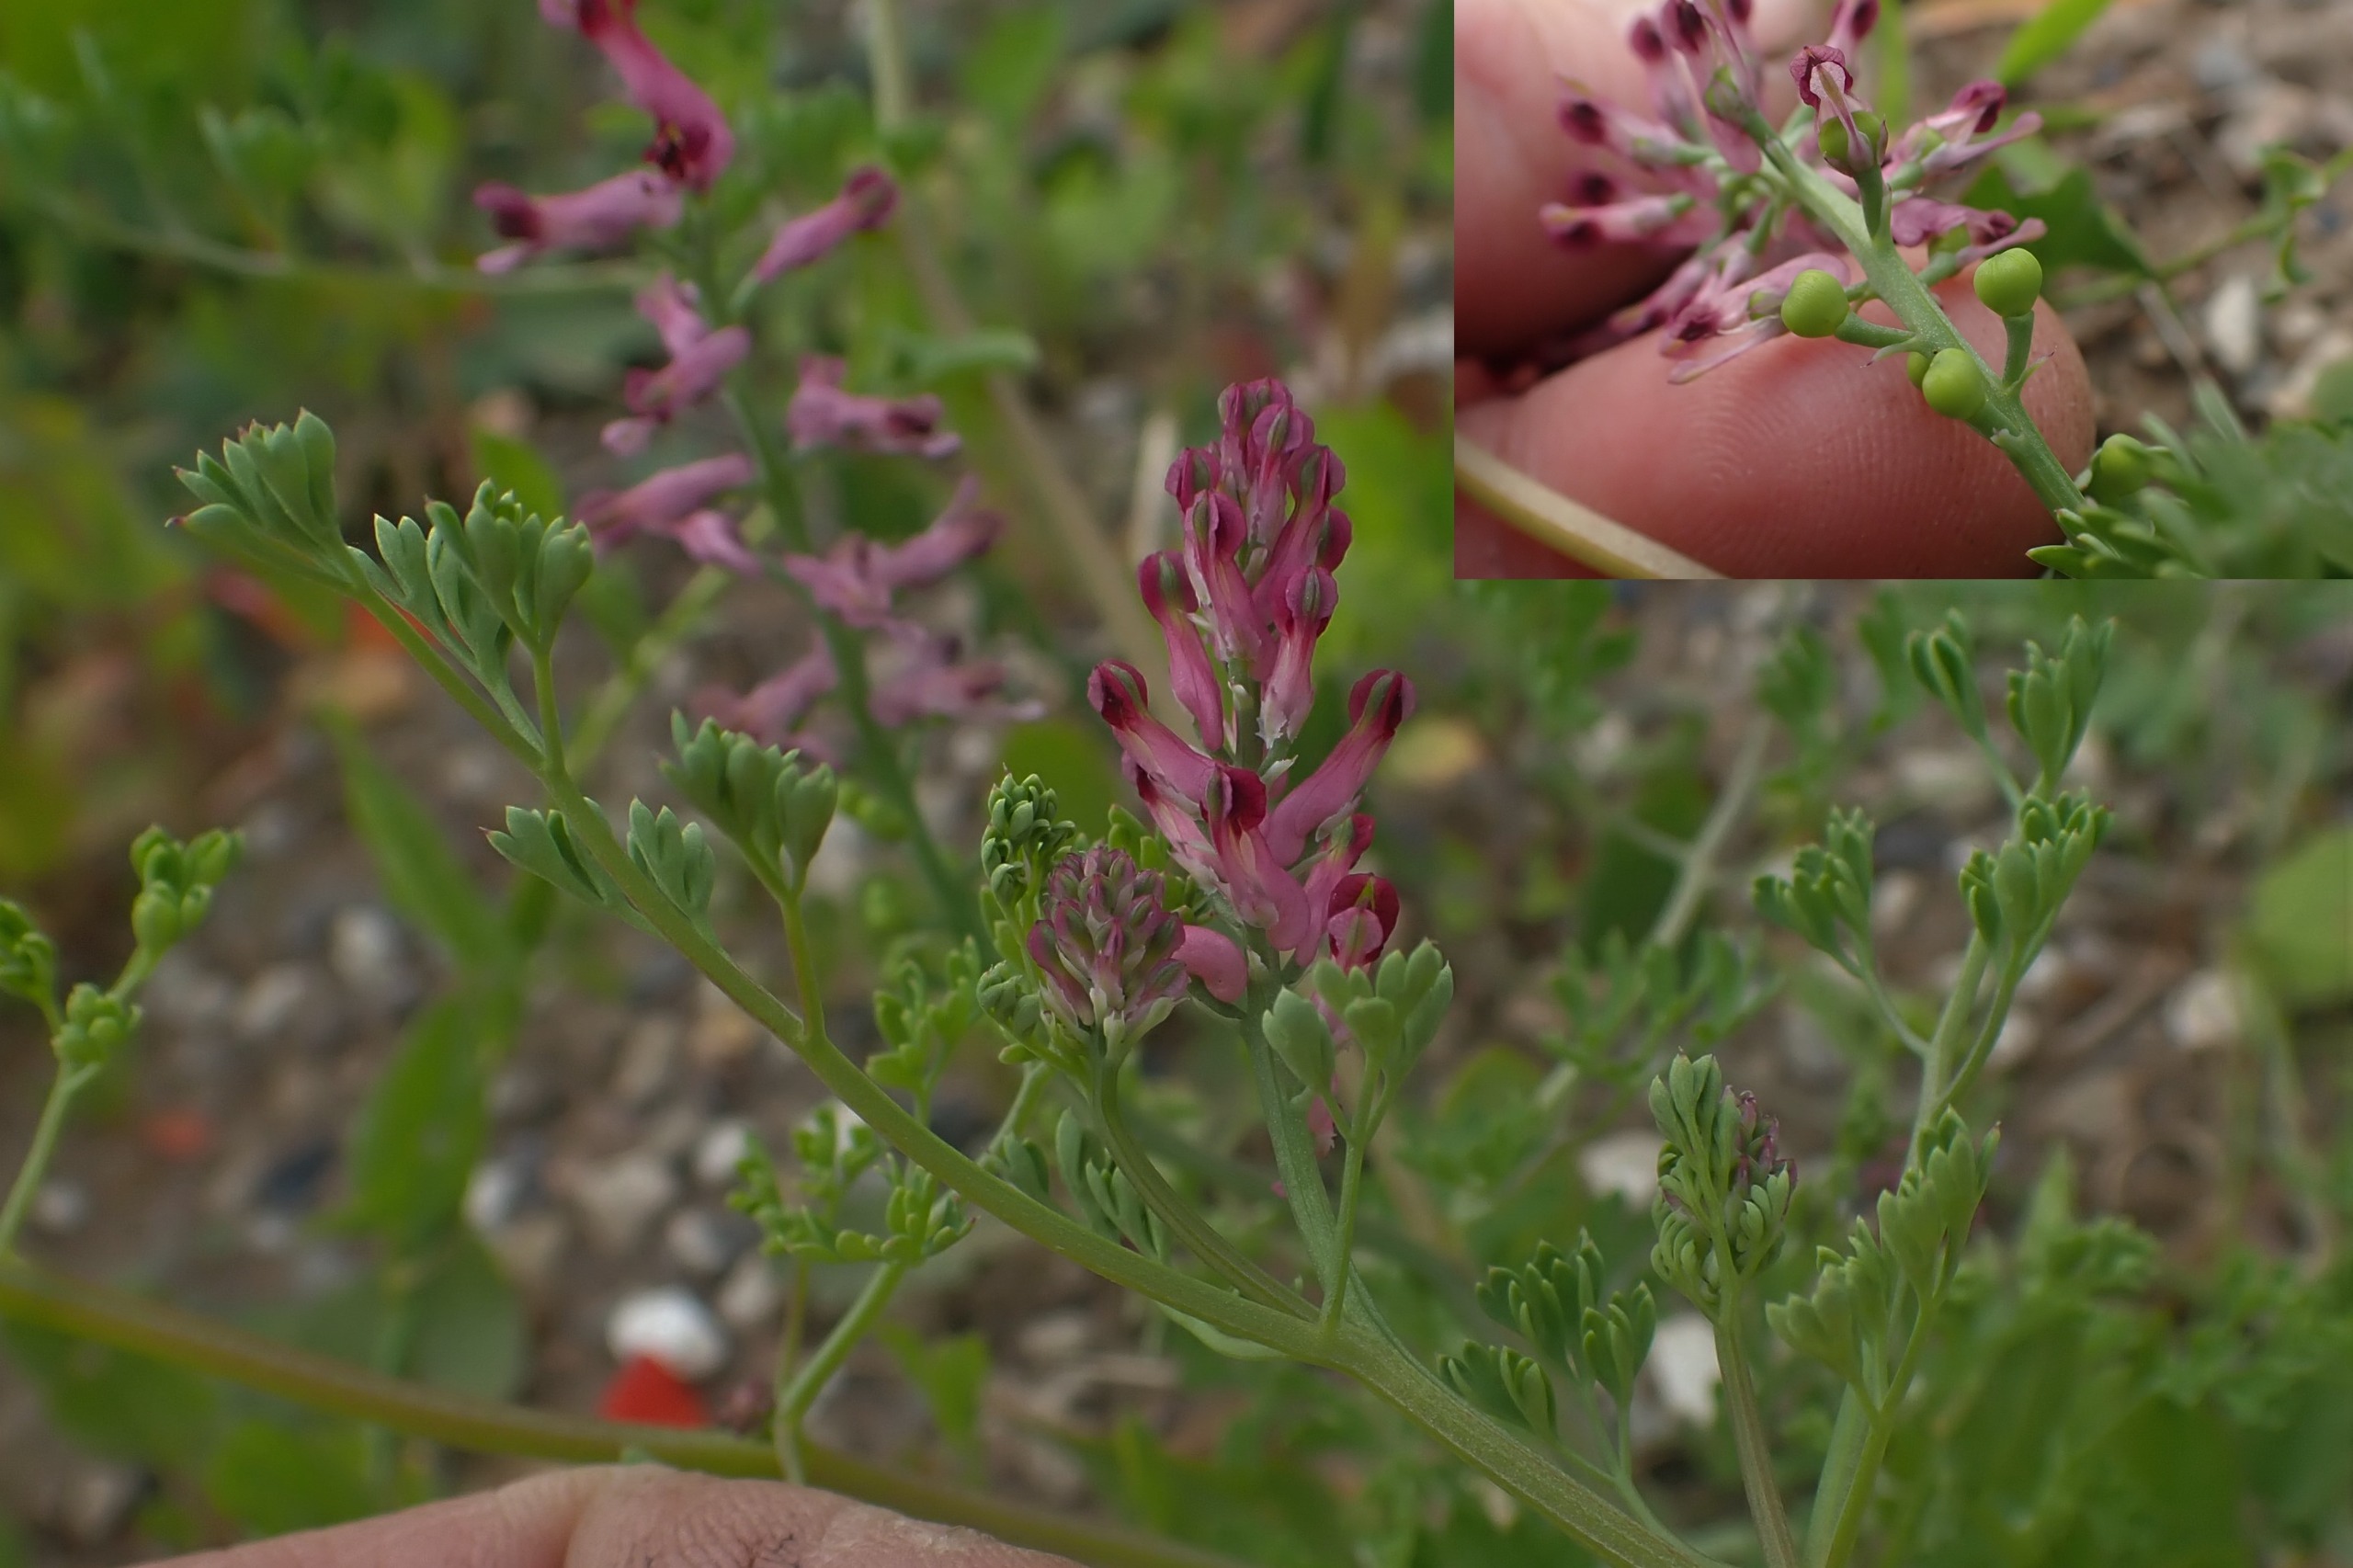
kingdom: Plantae
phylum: Tracheophyta
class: Magnoliopsida
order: Ranunculales
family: Papaveraceae
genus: Fumaria
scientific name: Fumaria officinalis
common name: Læge-jordrøg
